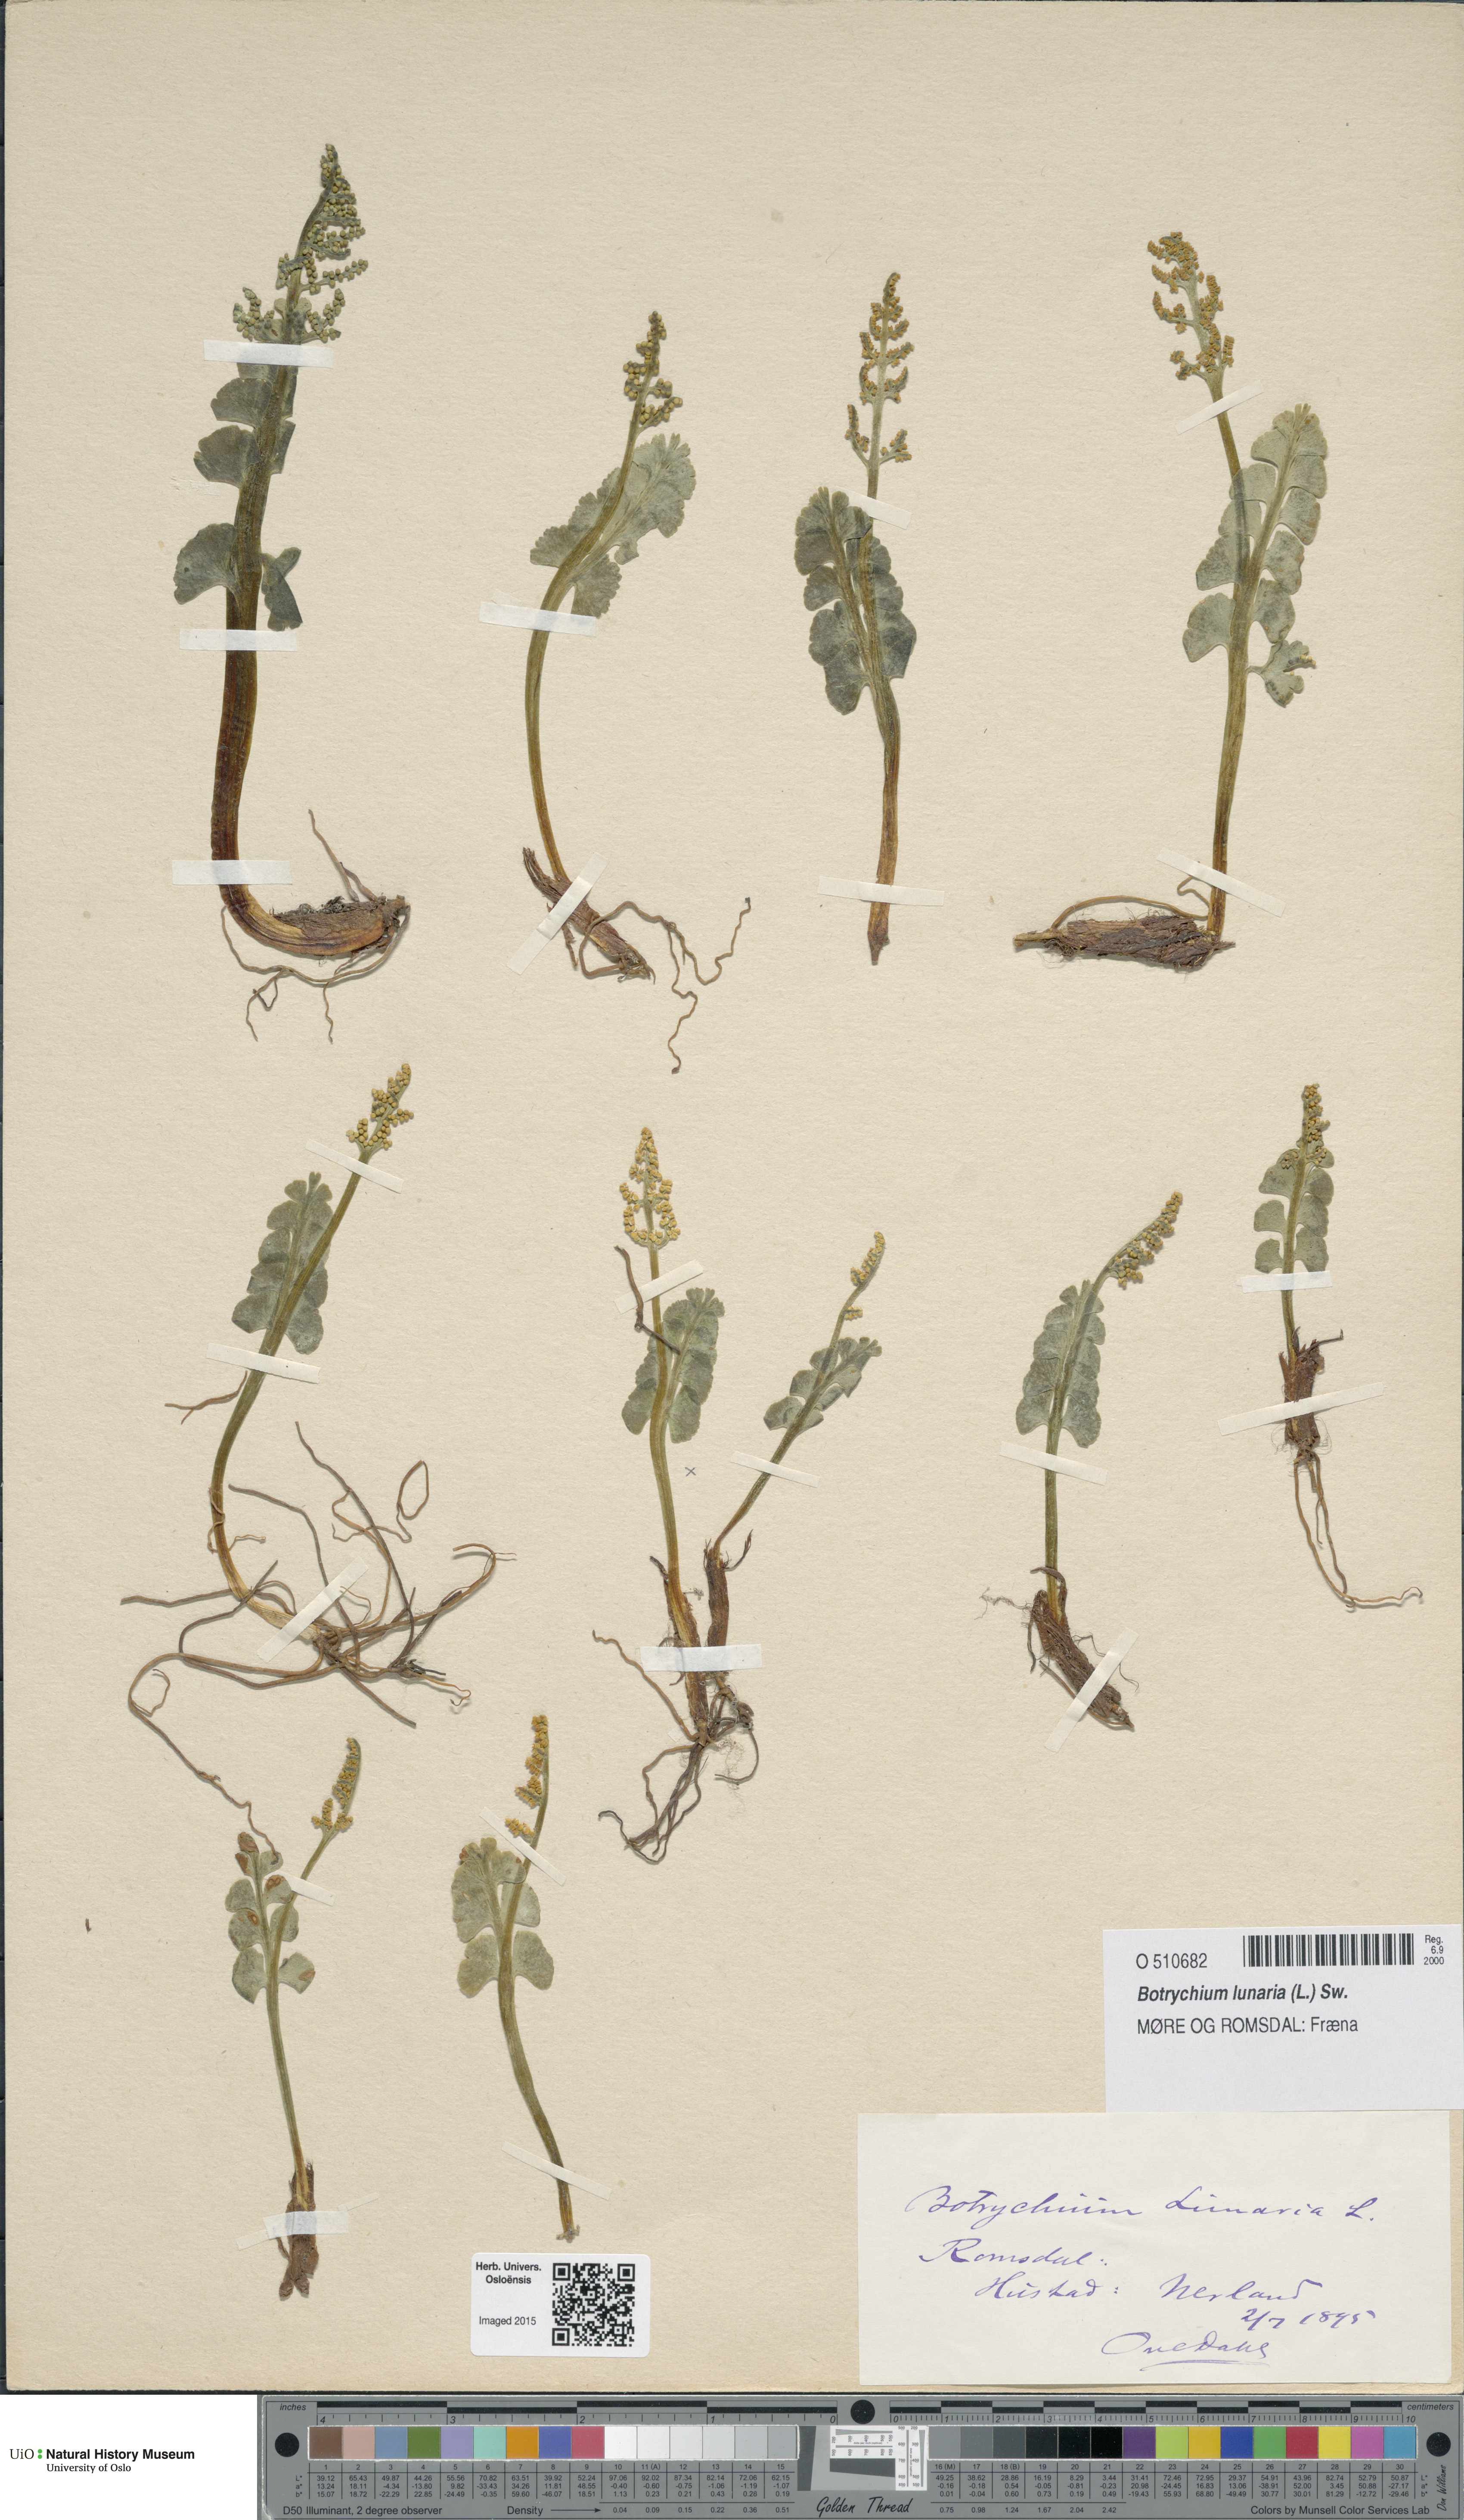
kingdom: Plantae
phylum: Tracheophyta
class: Polypodiopsida
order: Ophioglossales
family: Ophioglossaceae
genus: Botrychium
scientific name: Botrychium lunaria
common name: Moonwort
